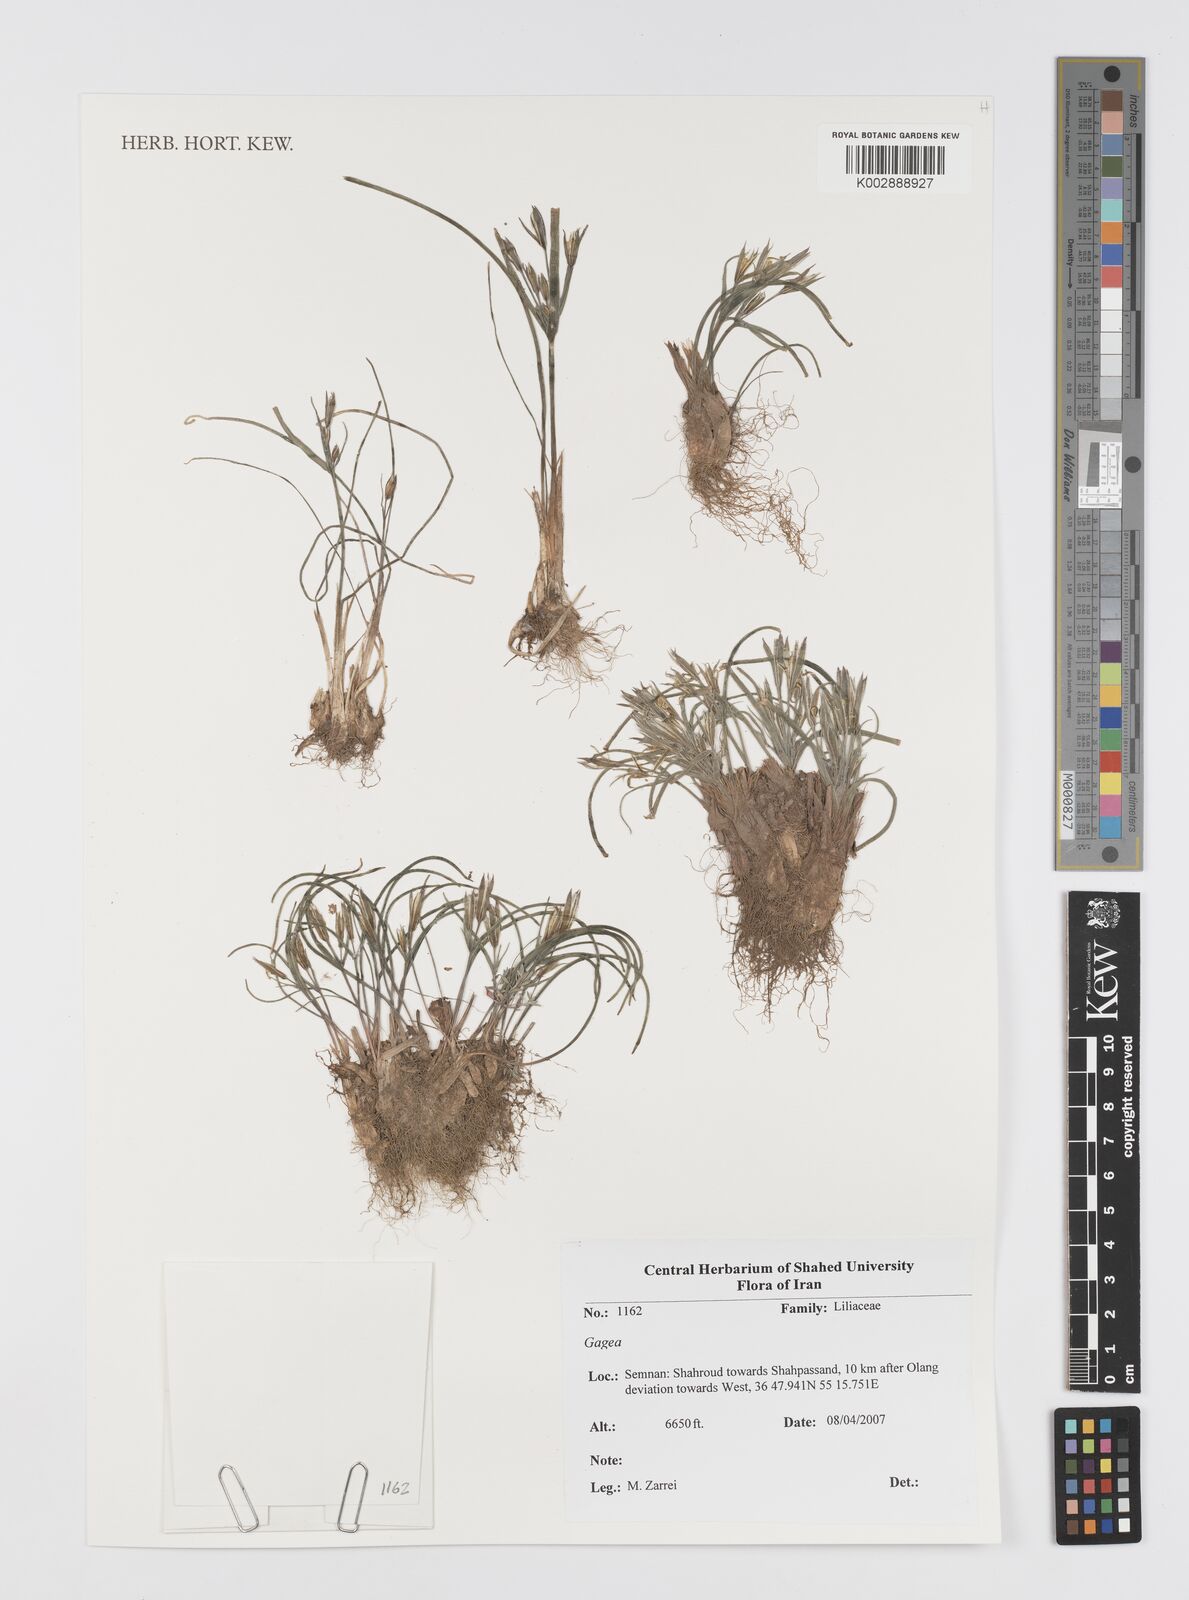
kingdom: Plantae
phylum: Tracheophyta
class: Liliopsida
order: Liliales
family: Liliaceae
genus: Gagea
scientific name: Gagea
